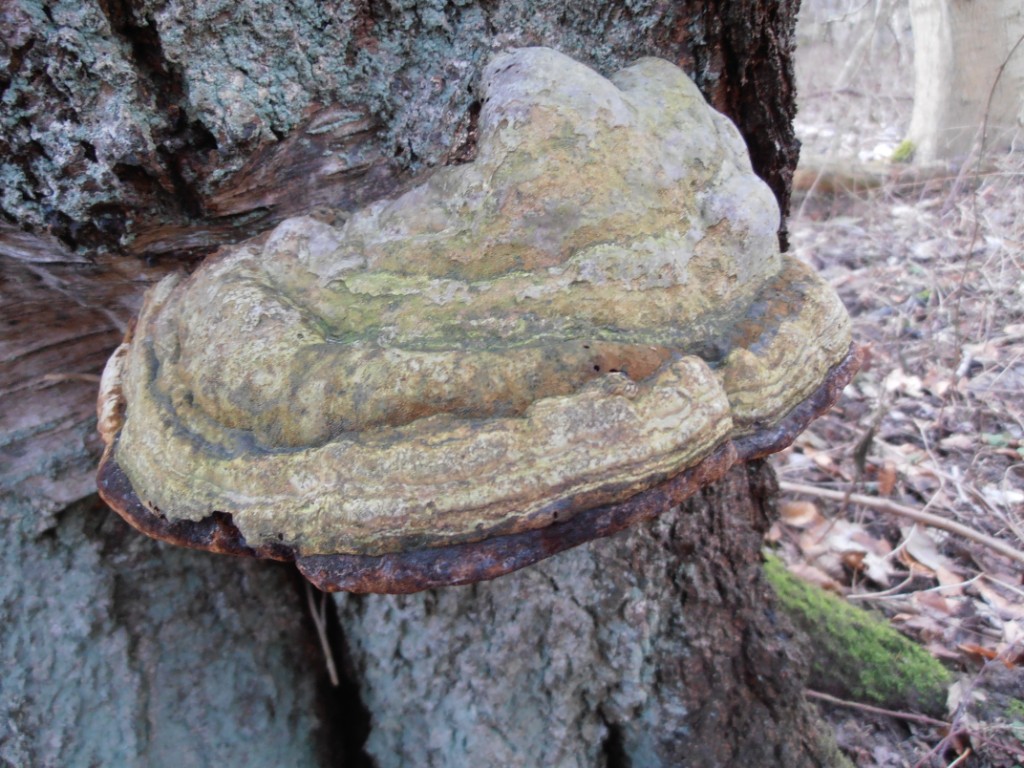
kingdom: Fungi
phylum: Basidiomycota
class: Agaricomycetes
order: Polyporales
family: Polyporaceae
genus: Fomes
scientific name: Fomes fomentarius
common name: tøndersvamp
